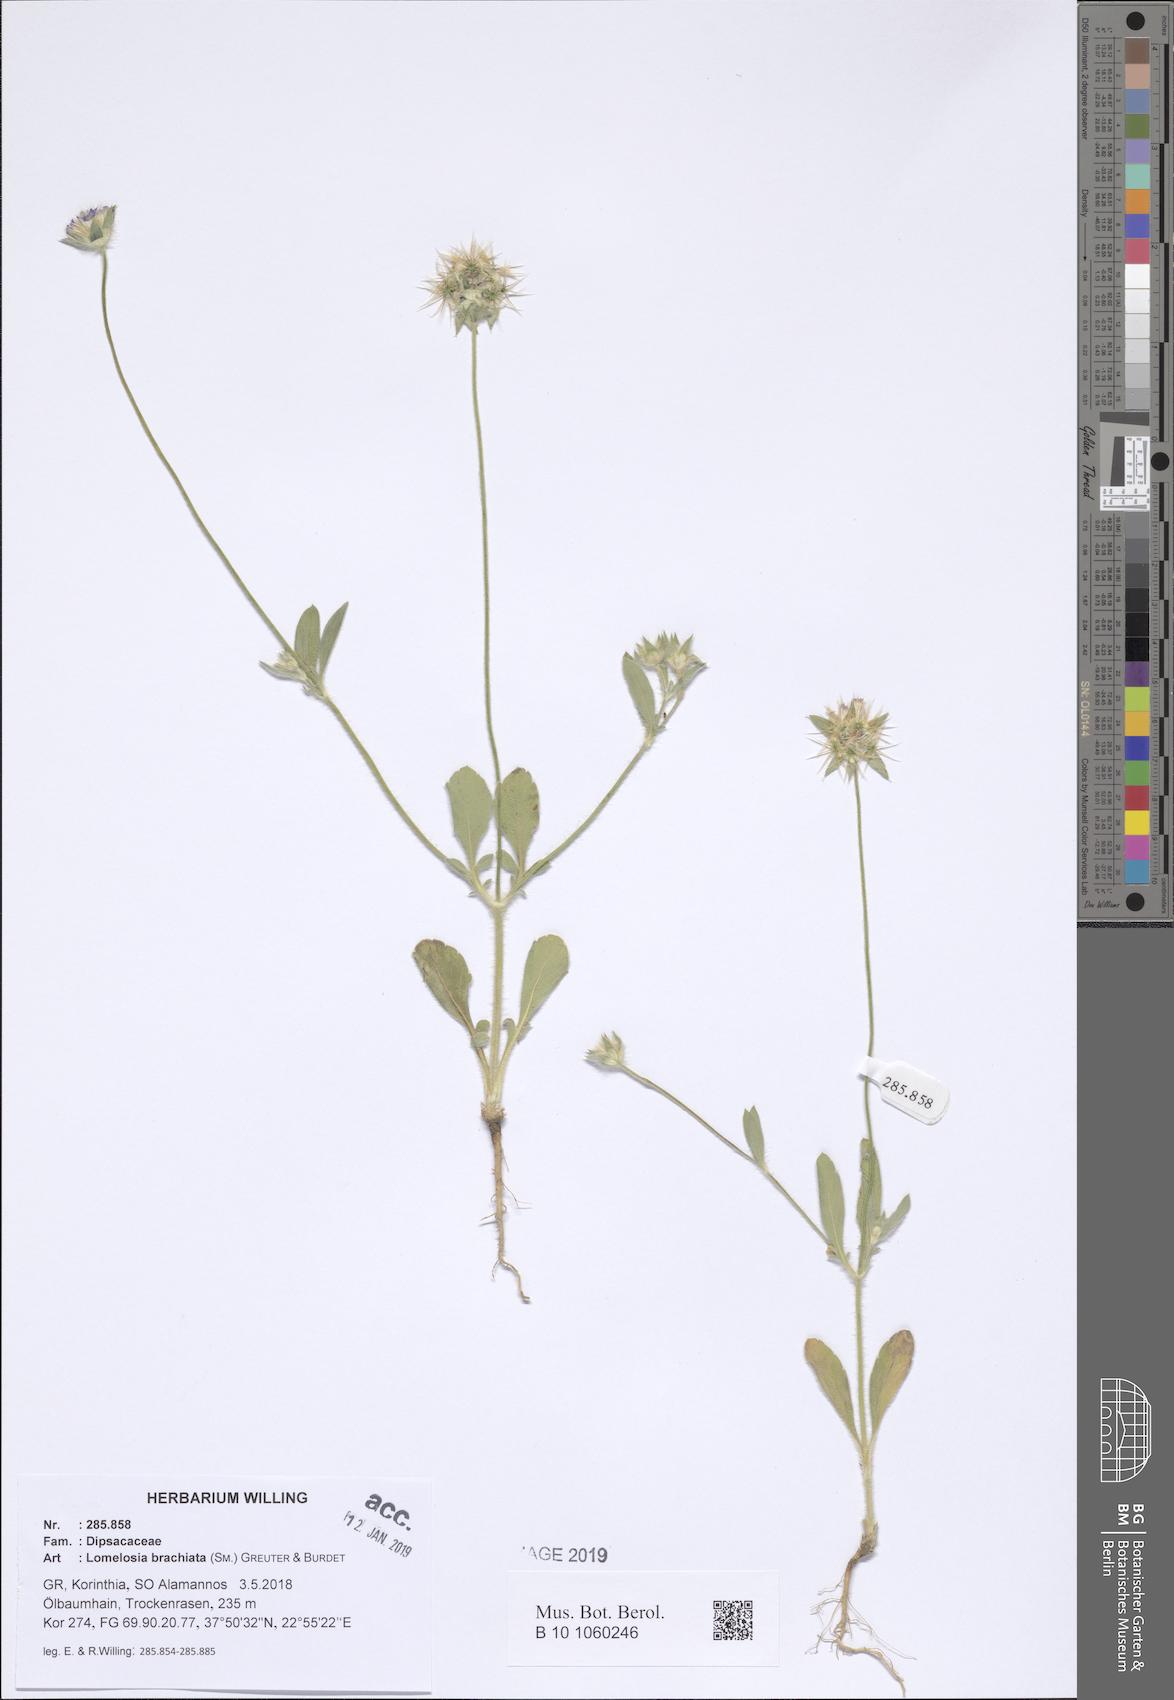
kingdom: Plantae
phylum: Tracheophyta
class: Magnoliopsida
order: Dipsacales
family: Caprifoliaceae
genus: Lomelosia
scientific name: Lomelosia brachiata
